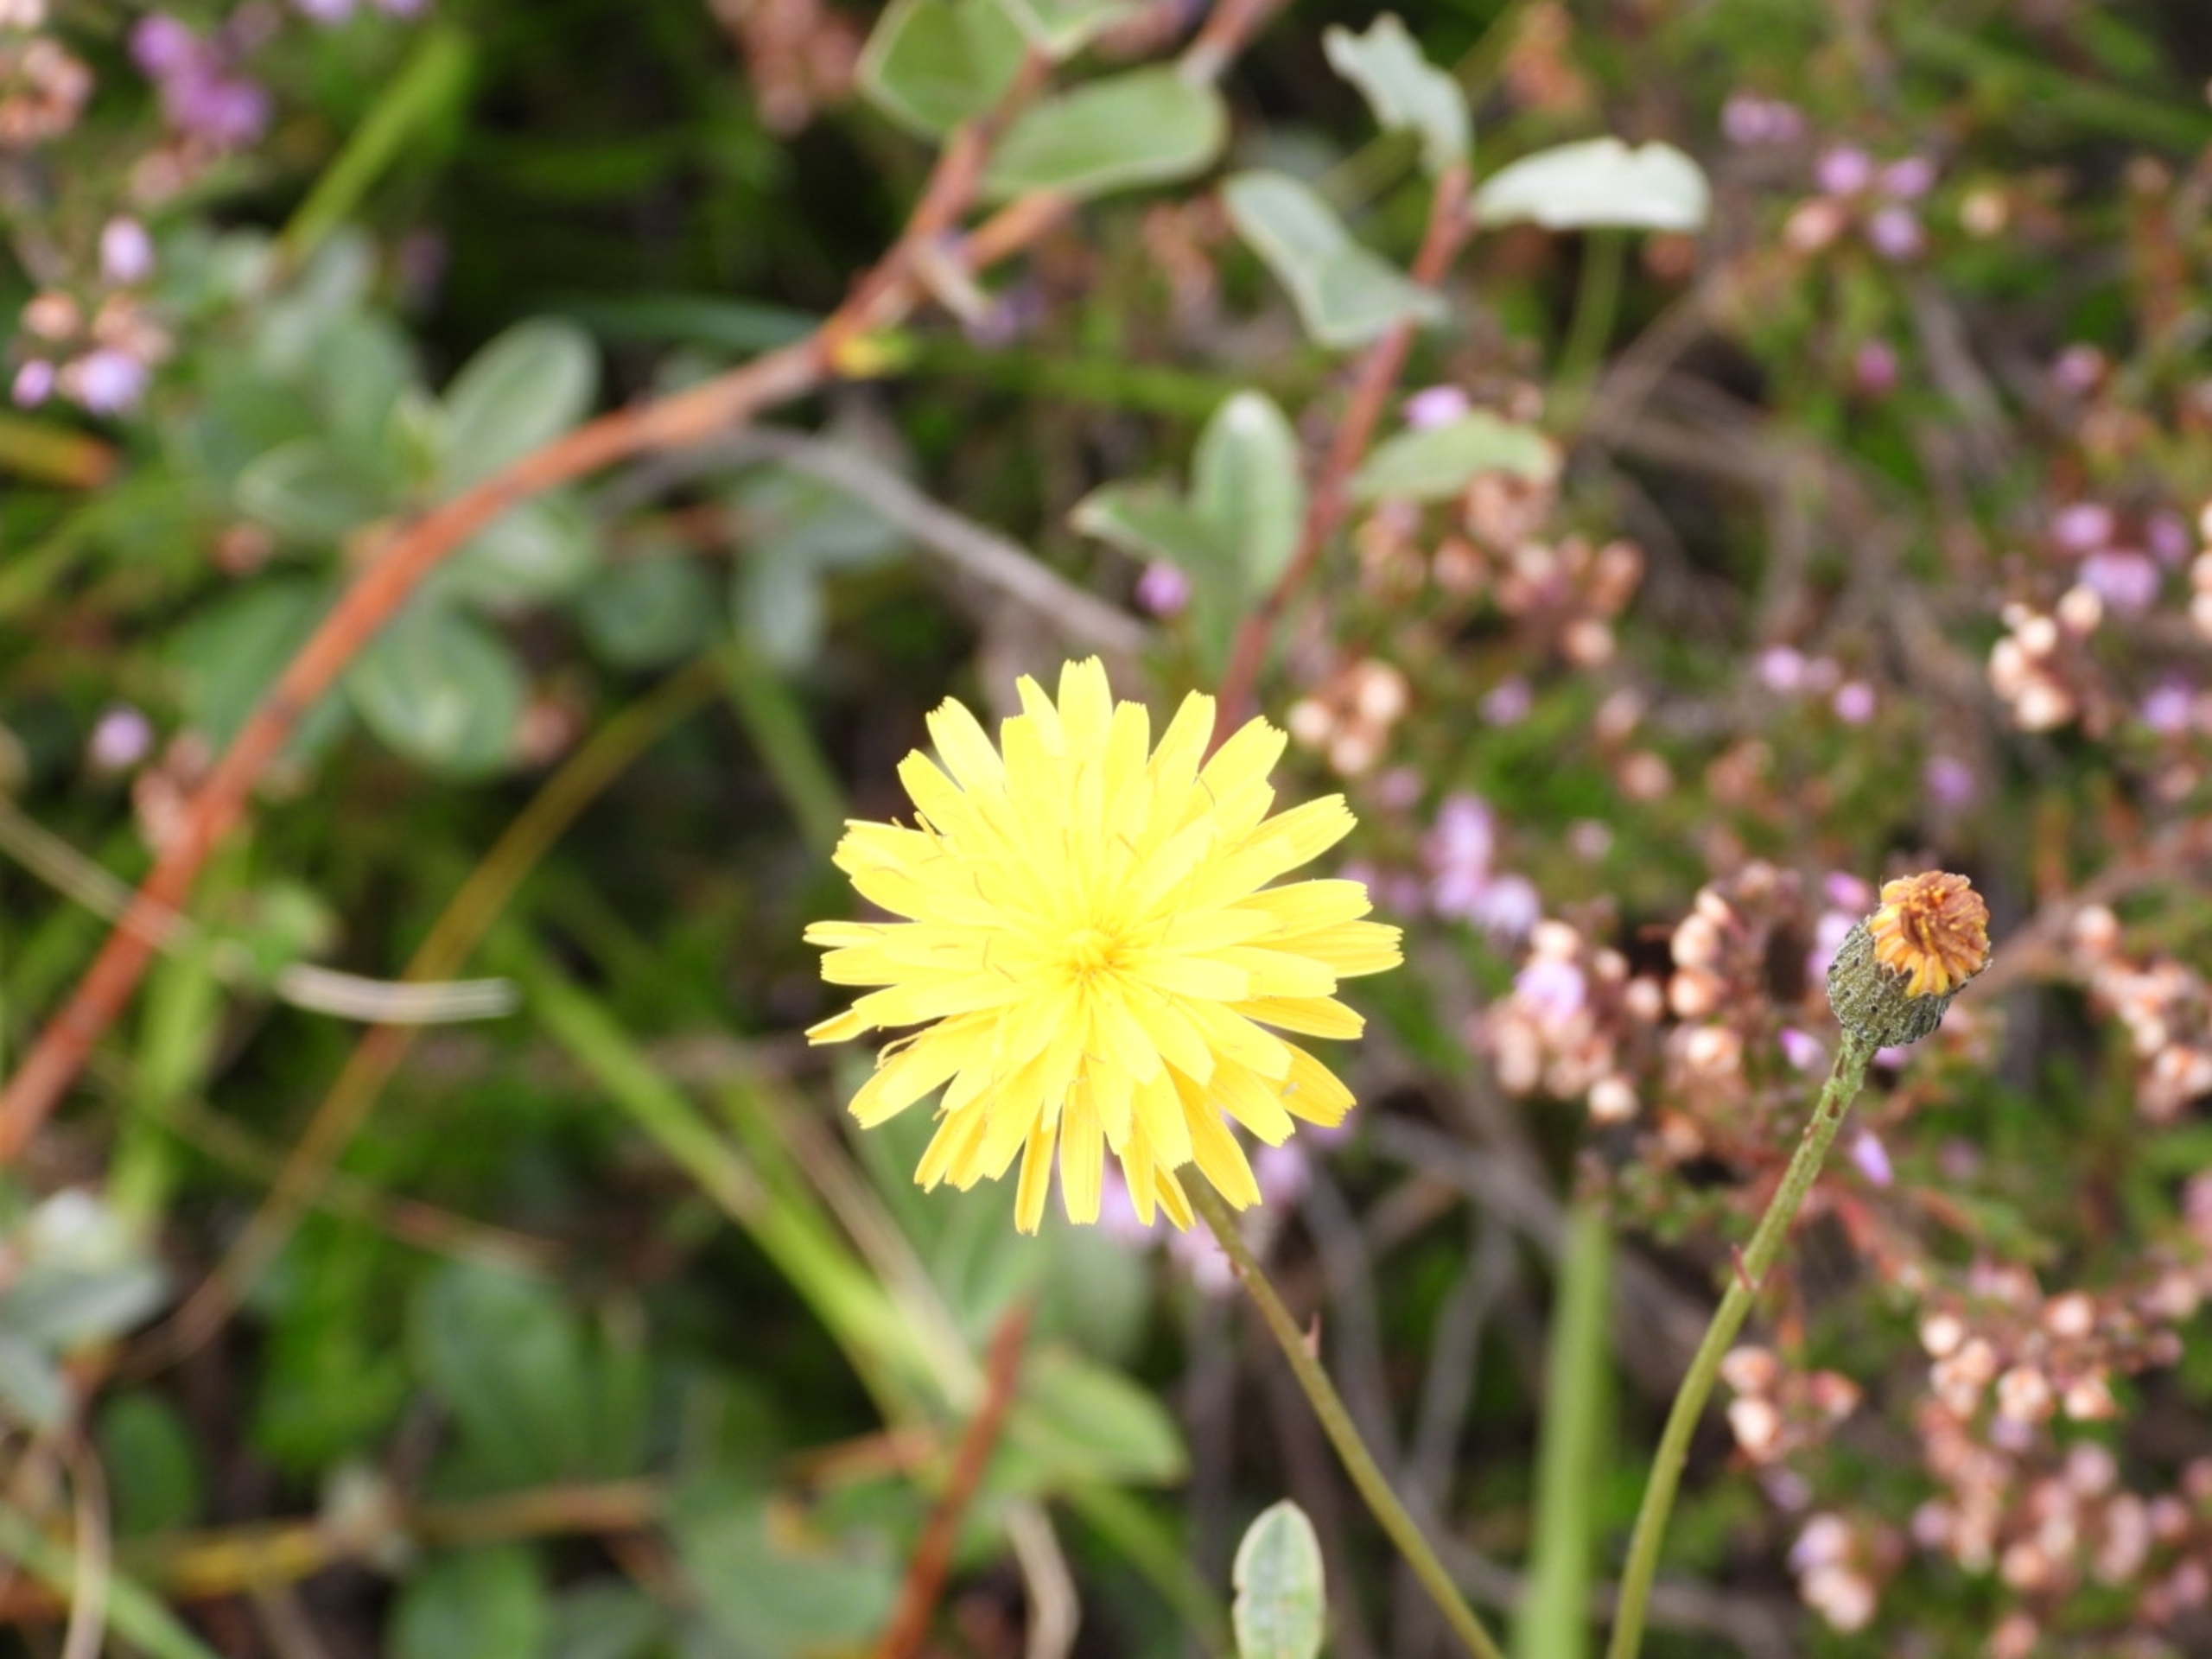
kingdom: Plantae
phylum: Tracheophyta
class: Magnoliopsida
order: Asterales
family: Asteraceae
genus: Hypochaeris
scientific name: Hypochaeris radicata
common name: Almindelig kongepen
